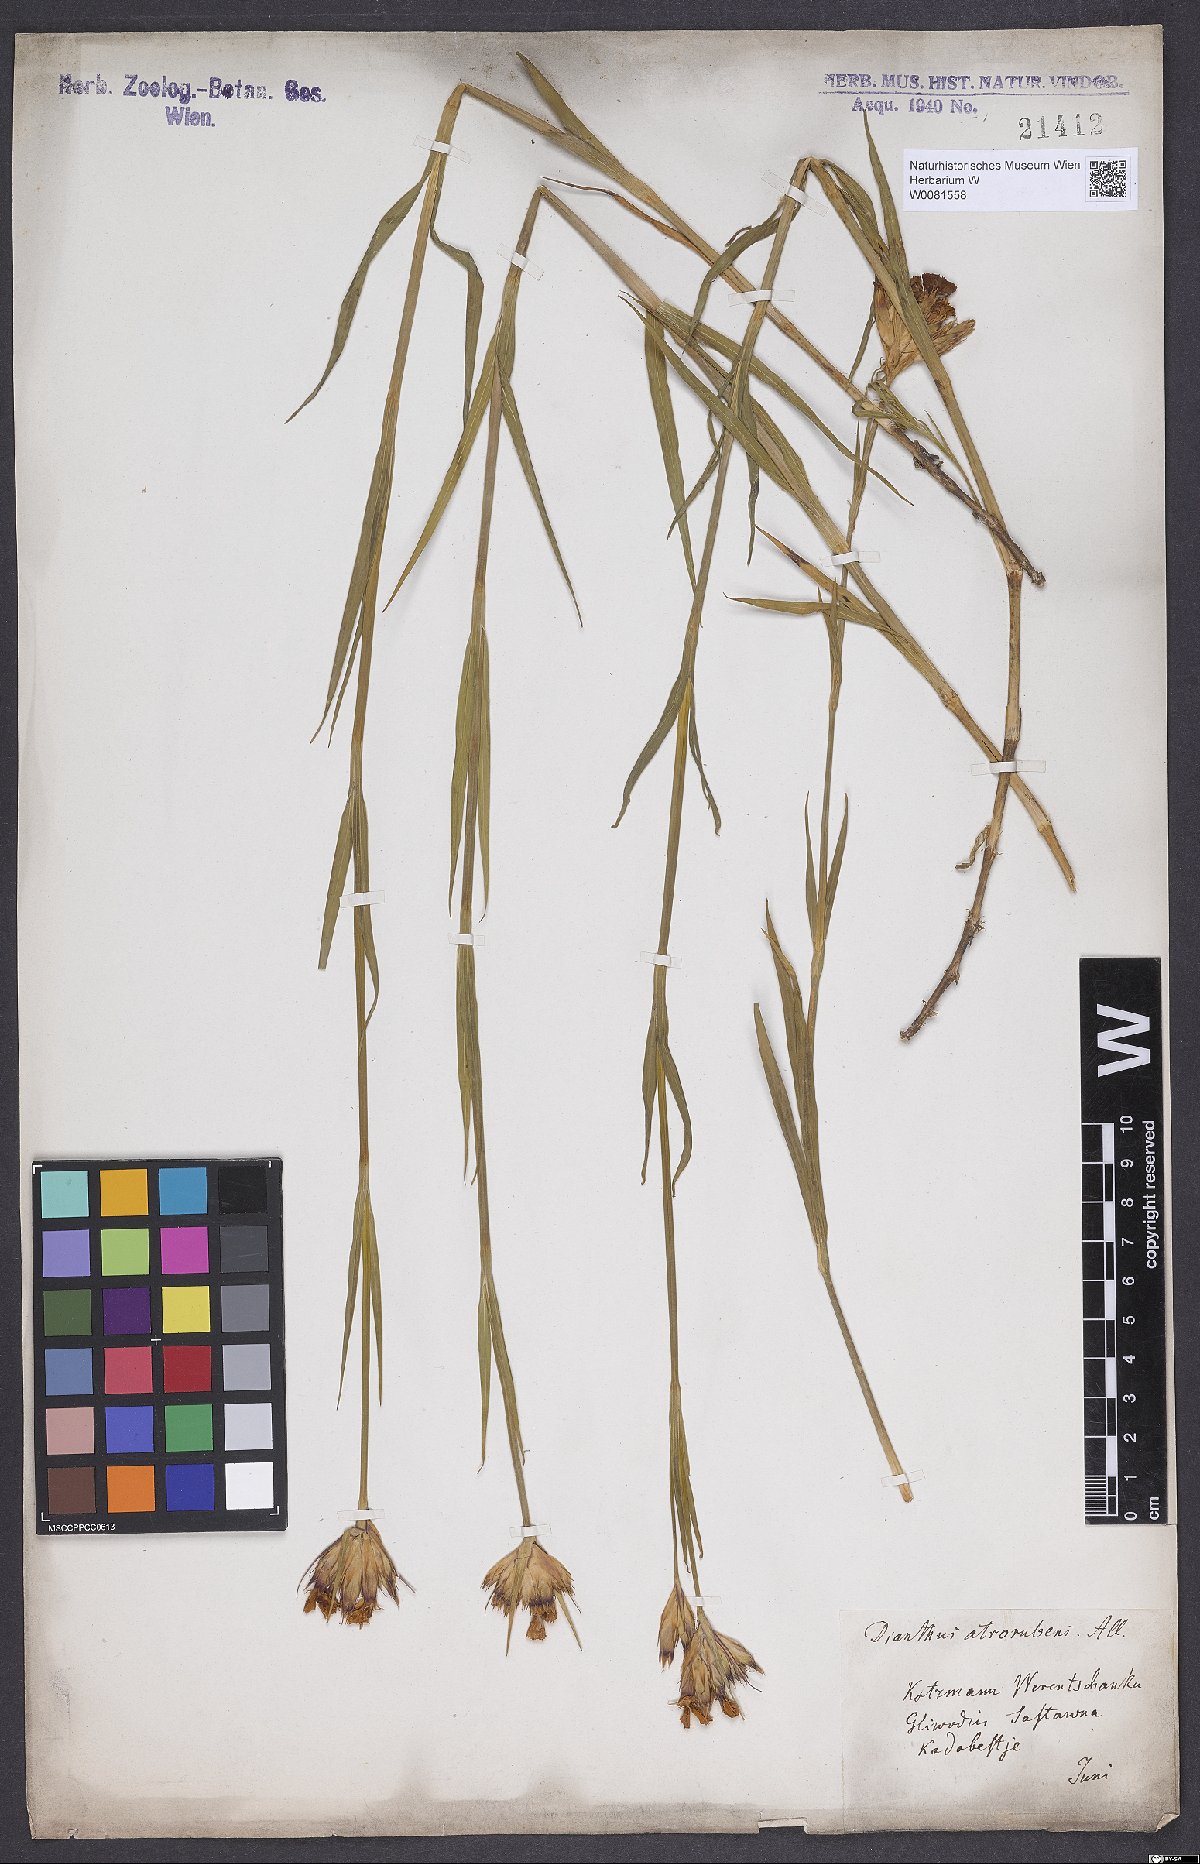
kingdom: Plantae
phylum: Tracheophyta
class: Magnoliopsida
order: Caryophyllales
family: Caryophyllaceae
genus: Dianthus
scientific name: Dianthus carthusianorum
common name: Carthusian pink
